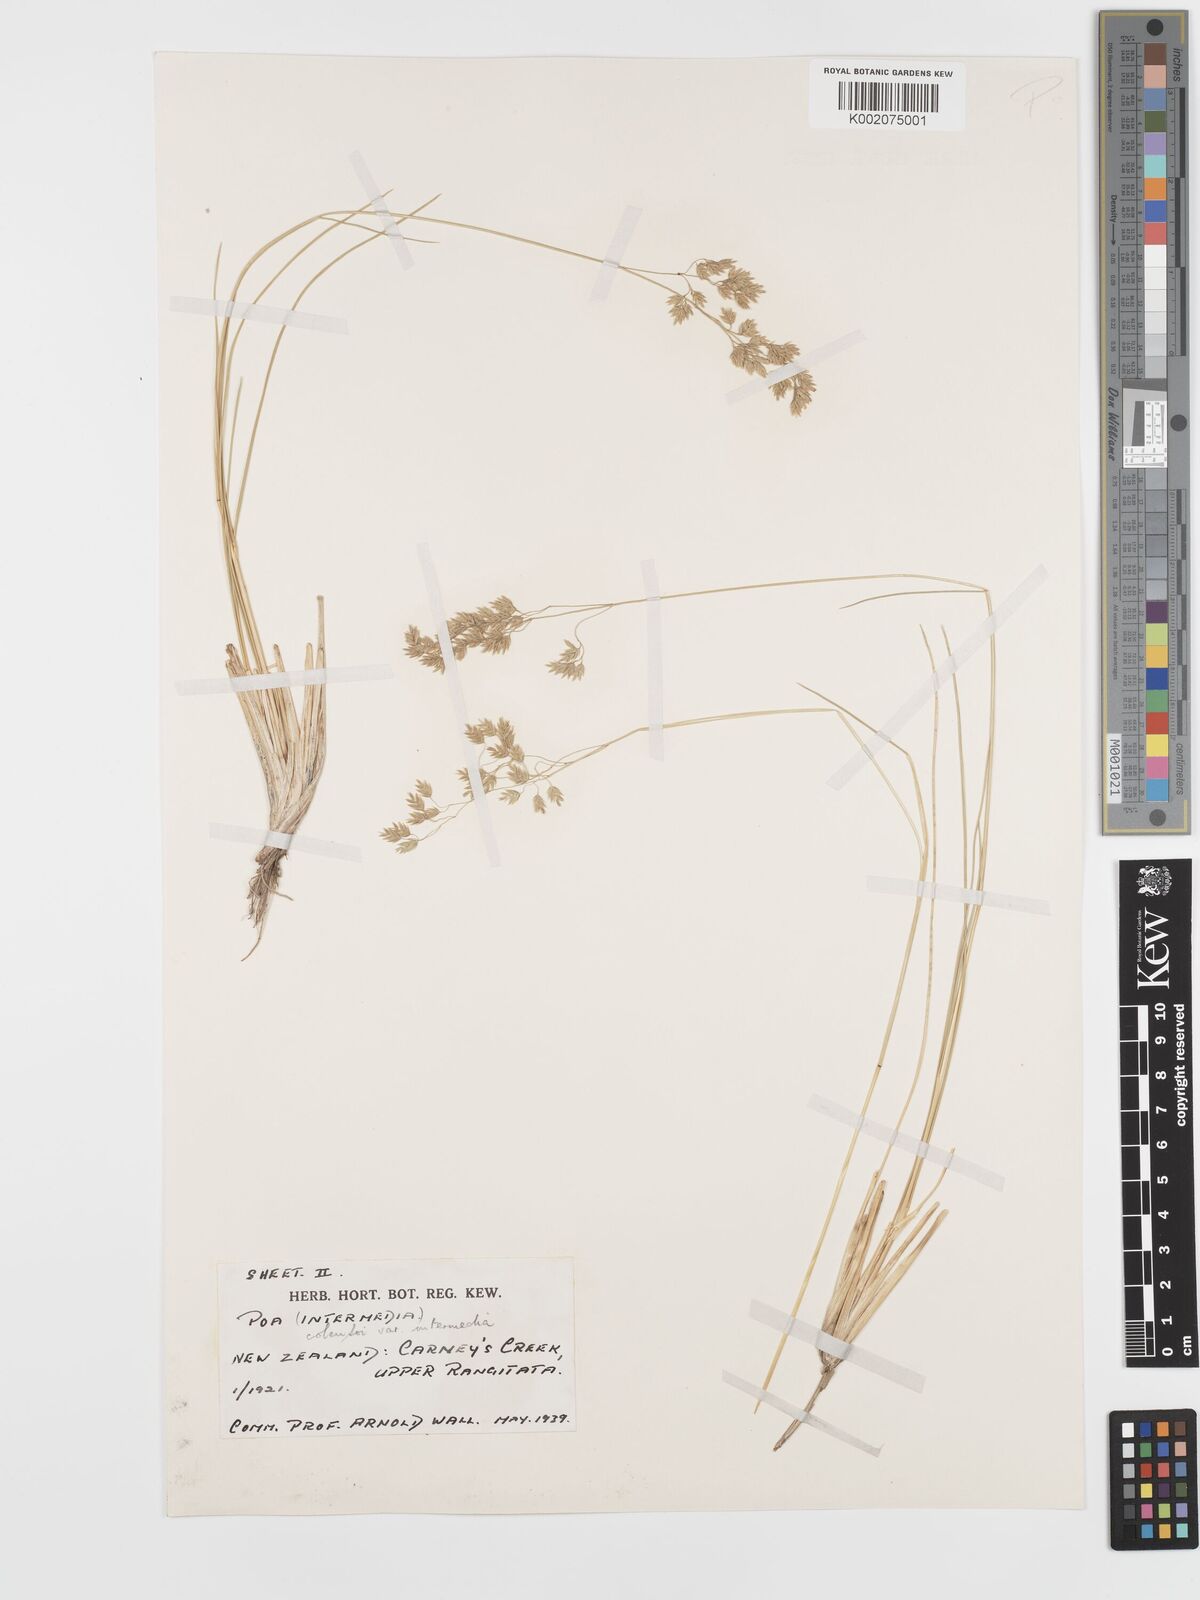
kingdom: Plantae
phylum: Tracheophyta
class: Liliopsida
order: Poales
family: Poaceae
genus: Poa
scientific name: Poa colensoi
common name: Blue tussock
